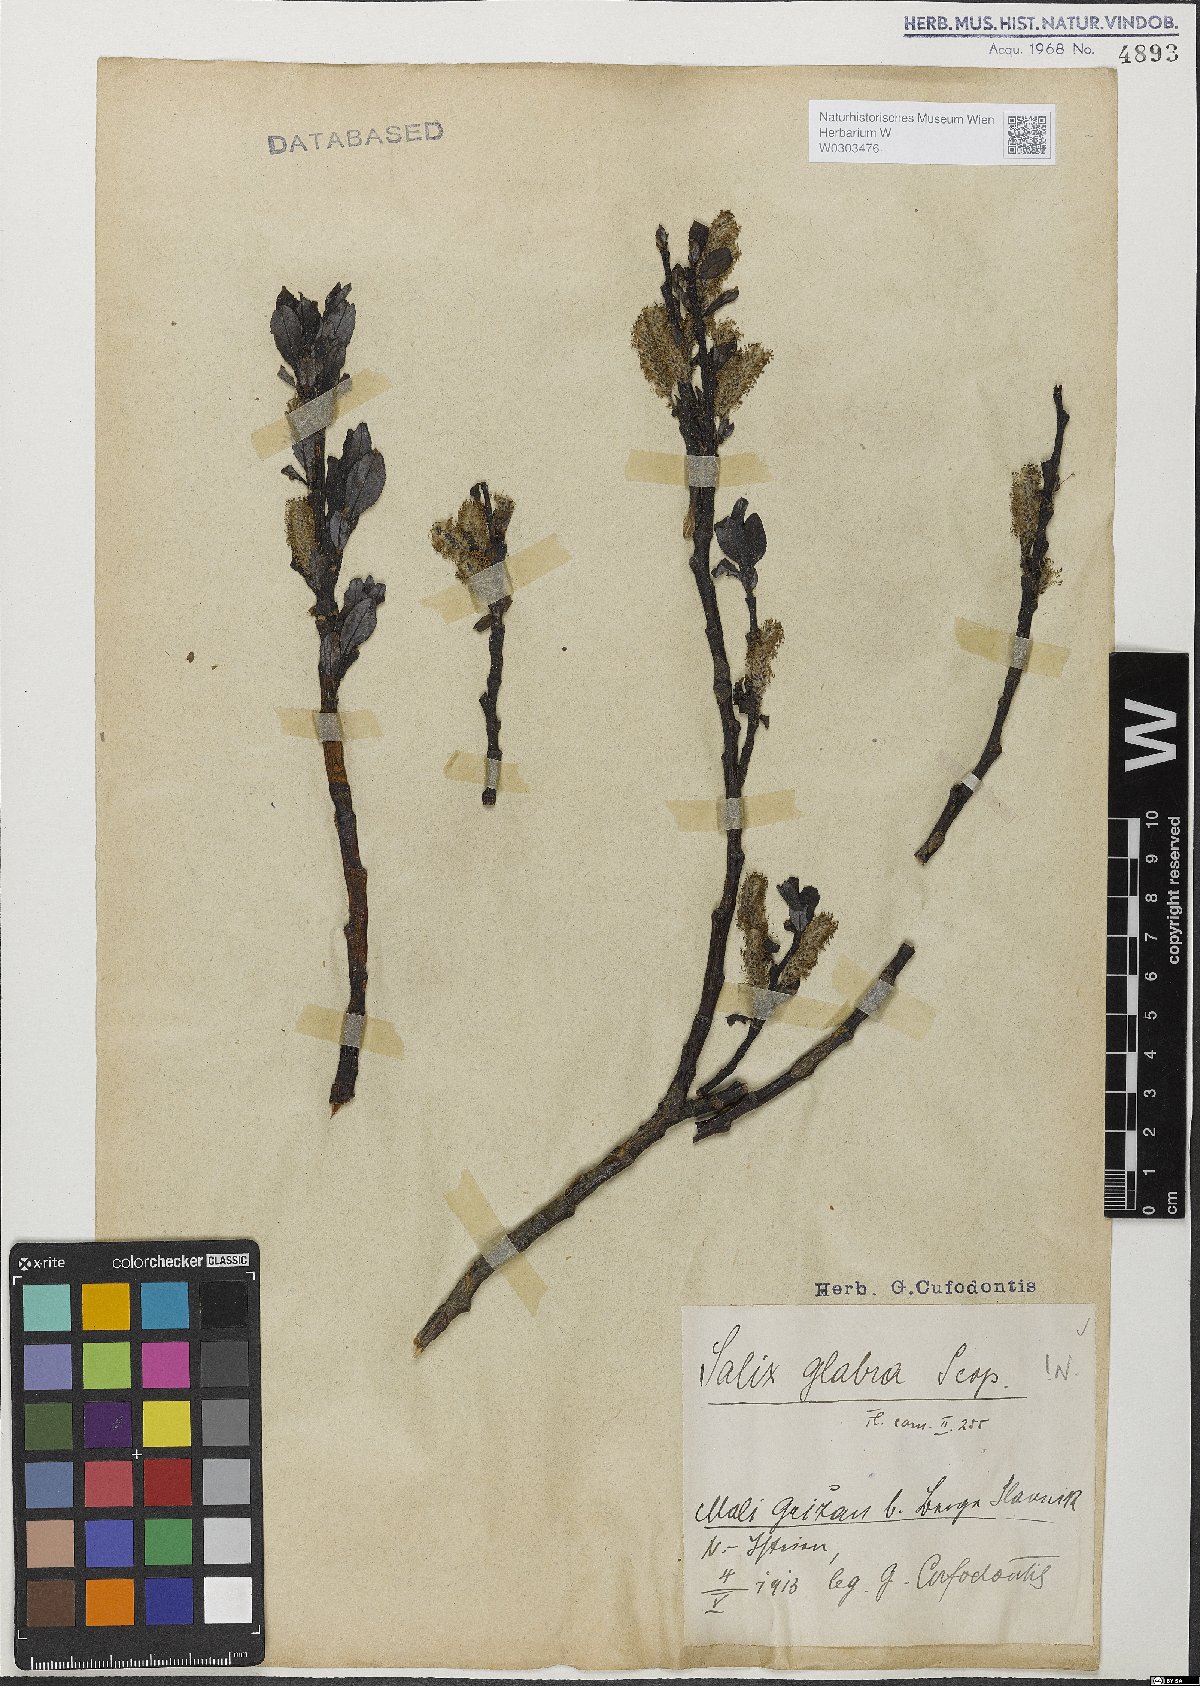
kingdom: Plantae
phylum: Tracheophyta
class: Magnoliopsida
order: Malpighiales
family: Salicaceae
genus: Salix
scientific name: Salix glabra
